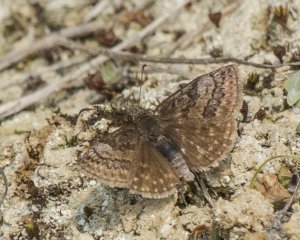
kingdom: Animalia
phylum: Arthropoda
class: Insecta
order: Lepidoptera
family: Hesperiidae
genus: Erynnis
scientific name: Erynnis icelus
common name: Dreamy Duskywing
